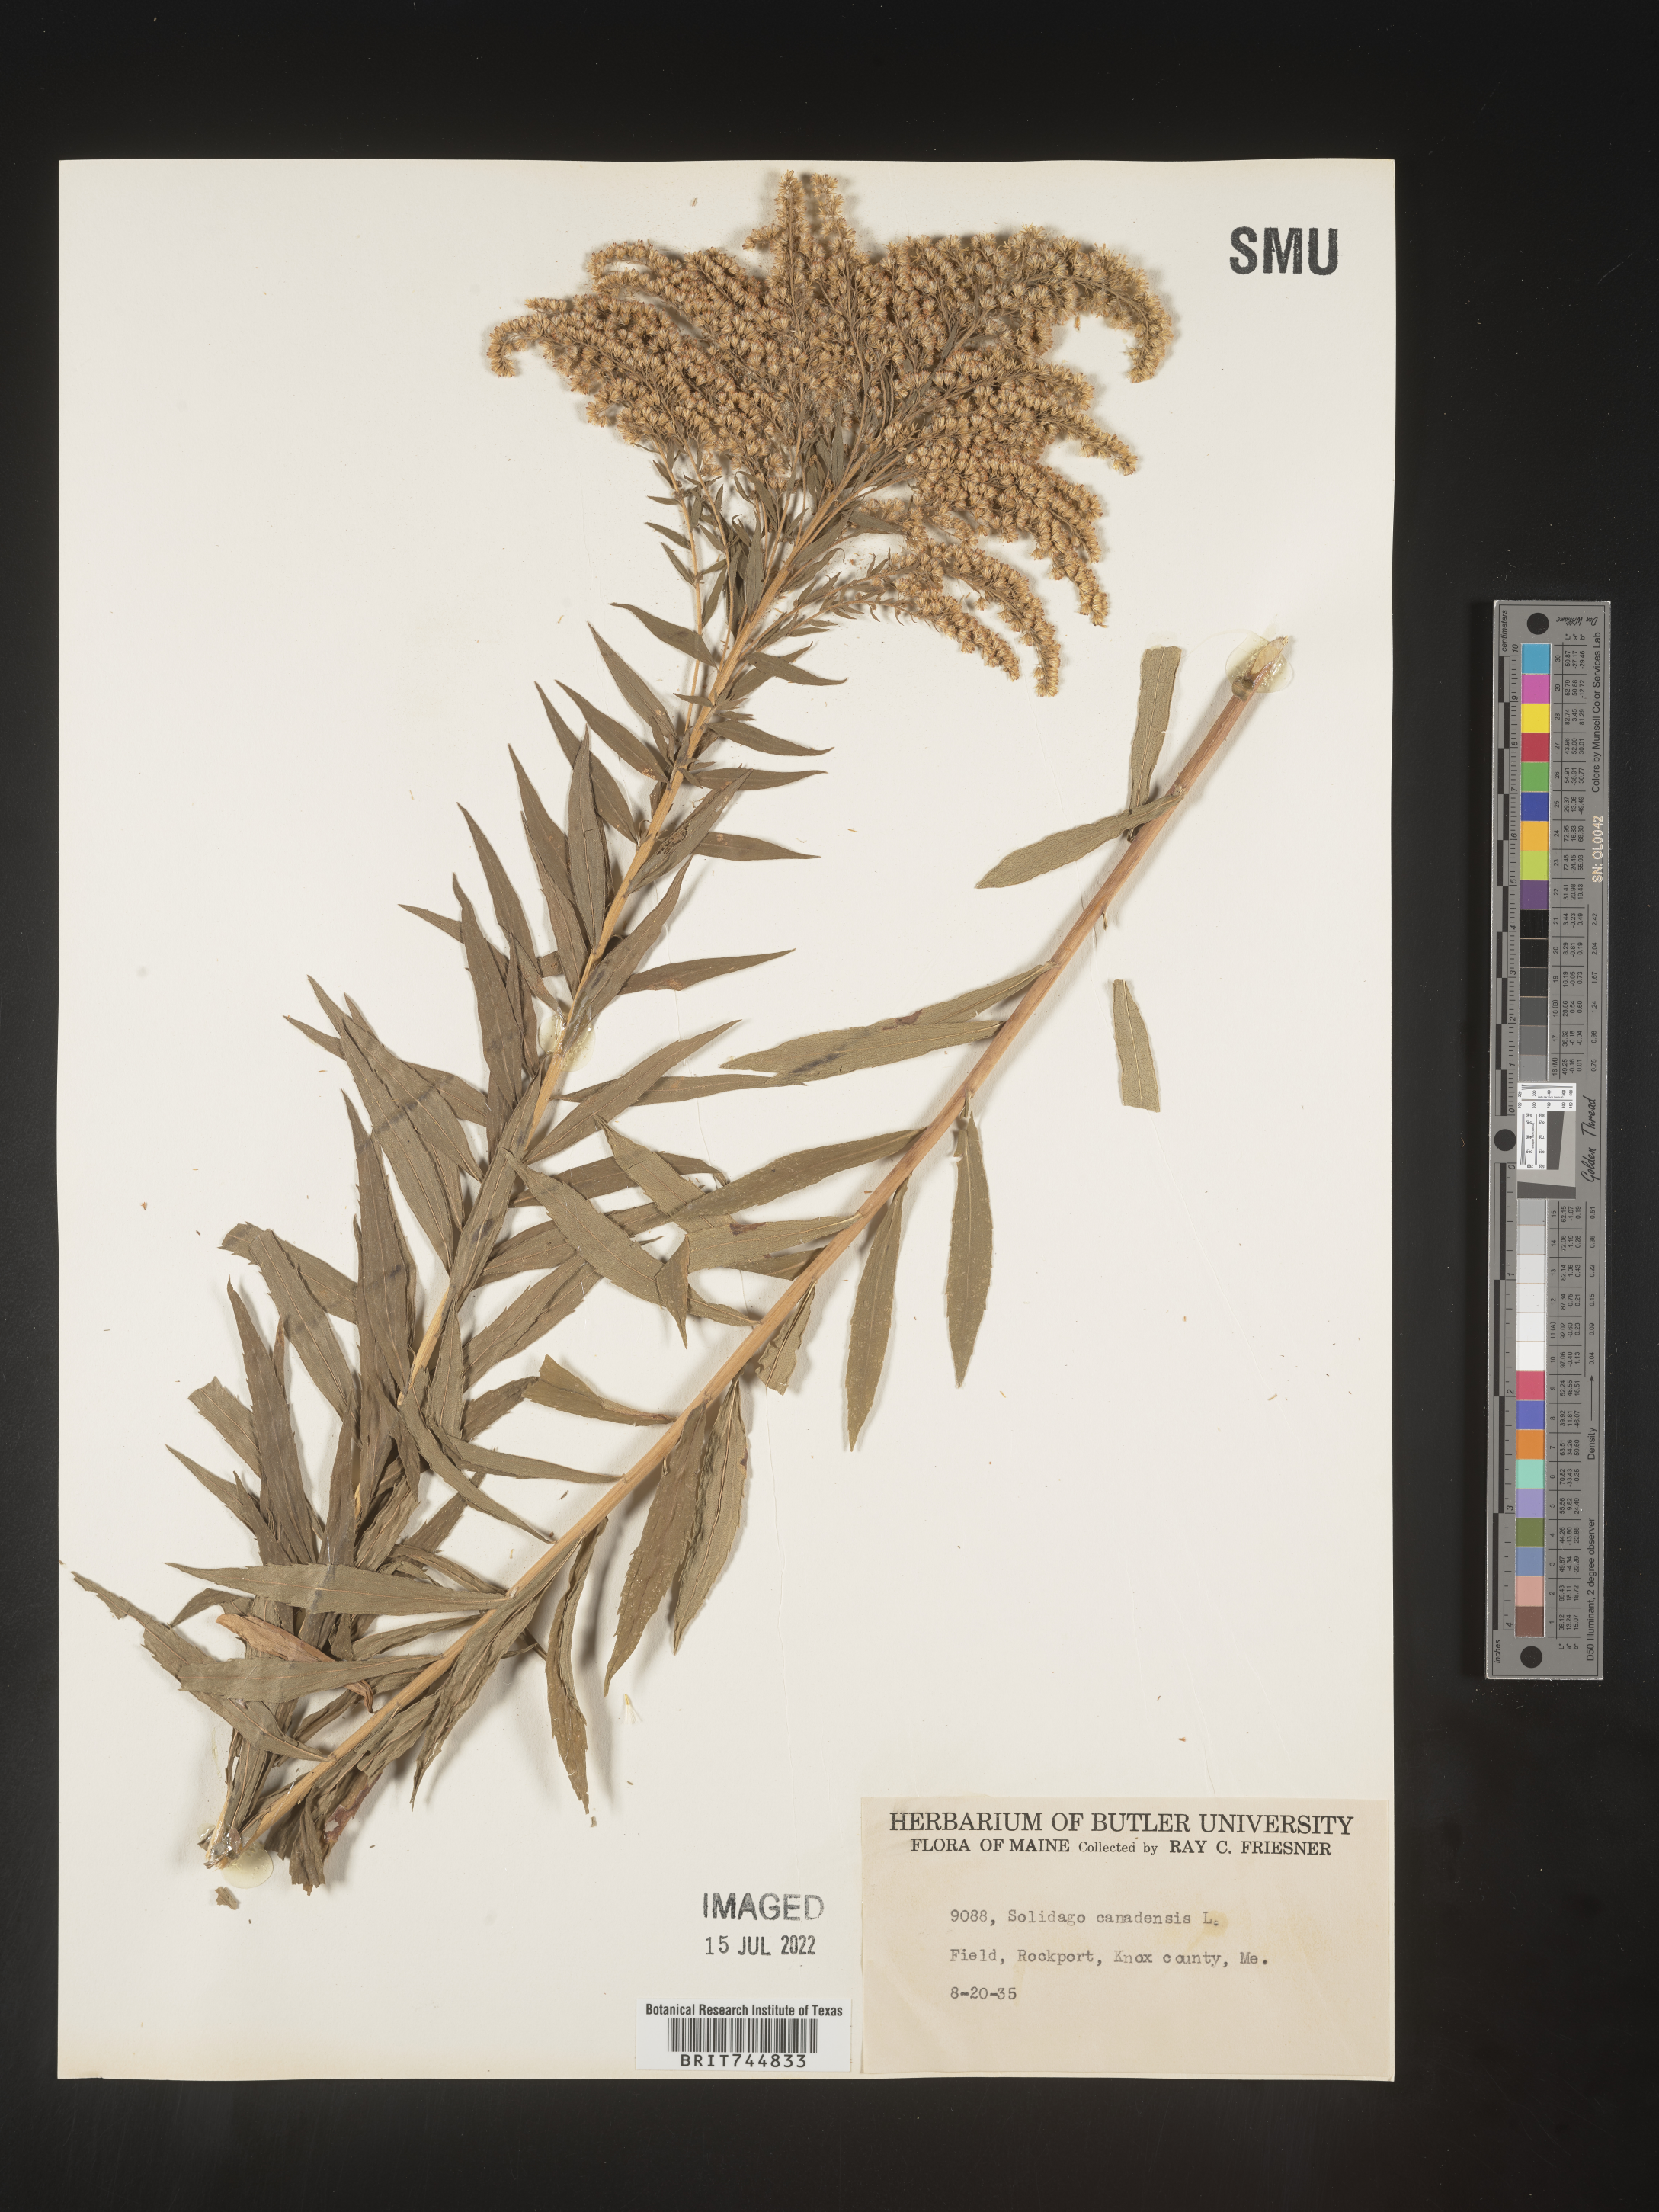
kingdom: Plantae
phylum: Tracheophyta
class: Magnoliopsida
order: Asterales
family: Asteraceae
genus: Solidago
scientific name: Solidago canadensis
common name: Canada goldenrod
